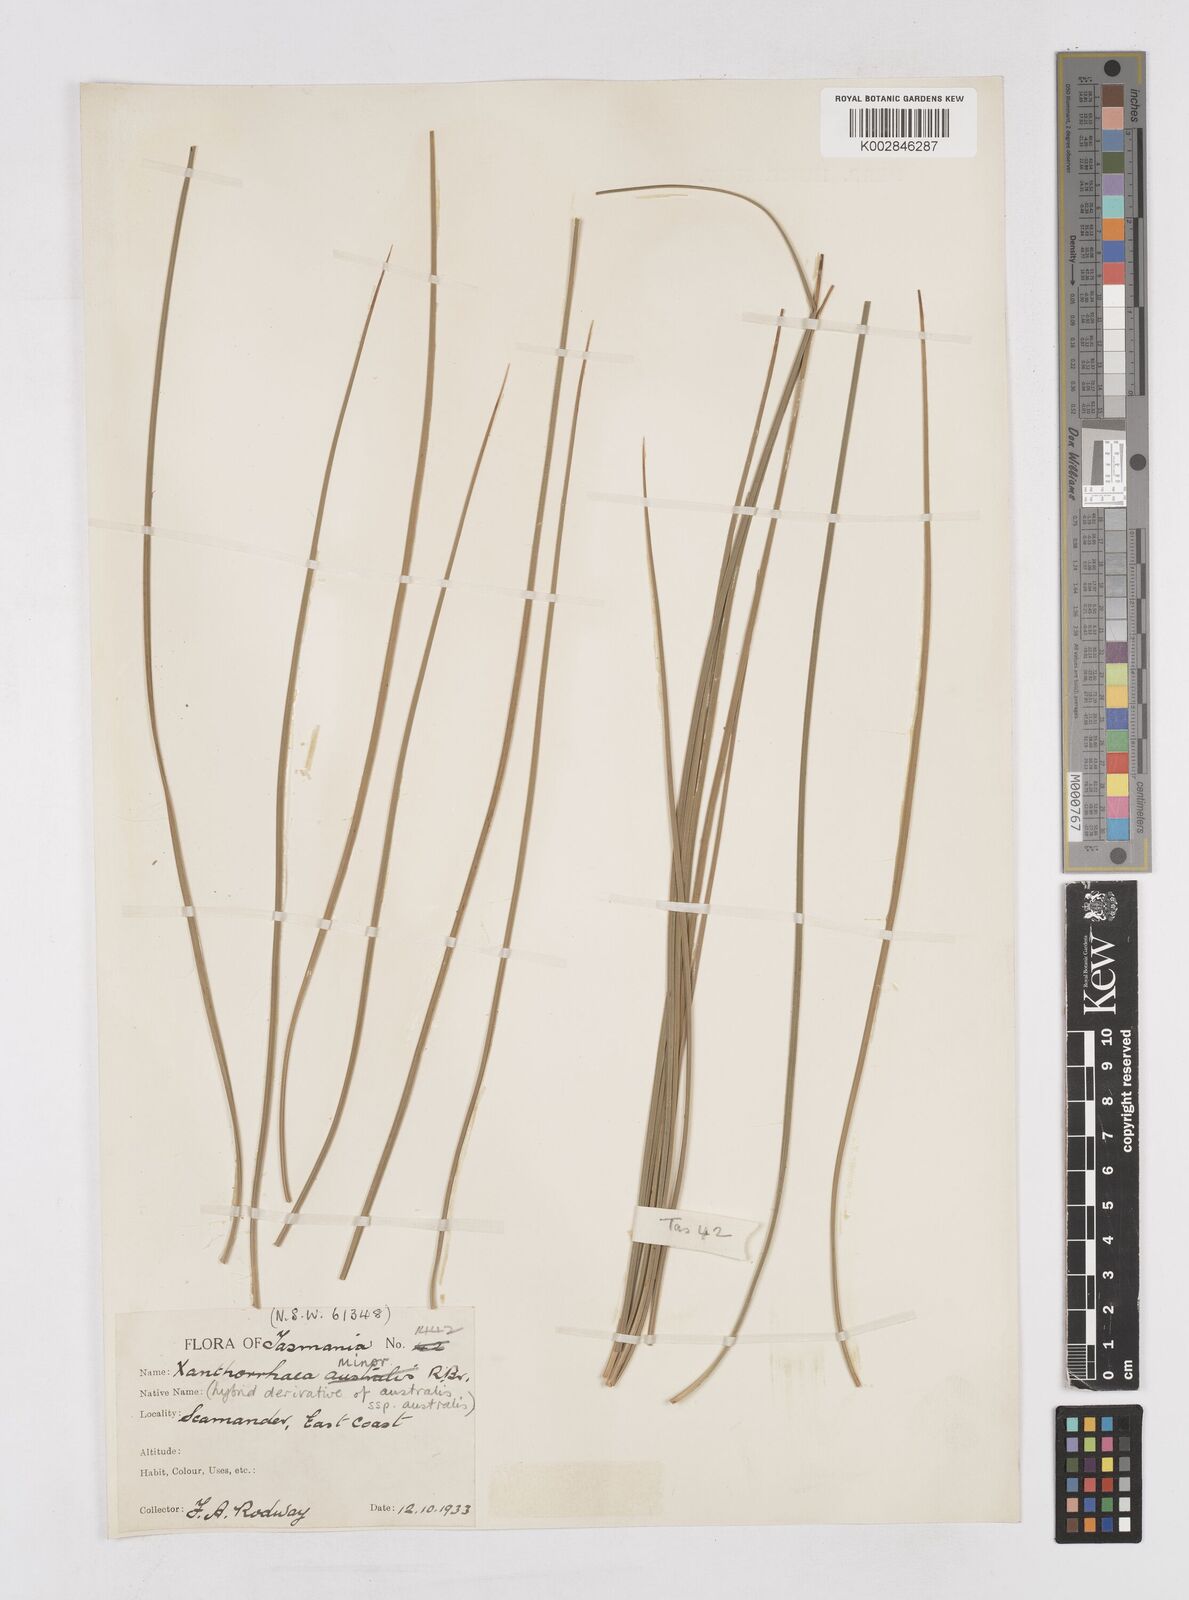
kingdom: Plantae
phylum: Tracheophyta
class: Liliopsida
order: Asparagales
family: Asphodelaceae
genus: Xanthorrhoea
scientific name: Xanthorrhoea minor
